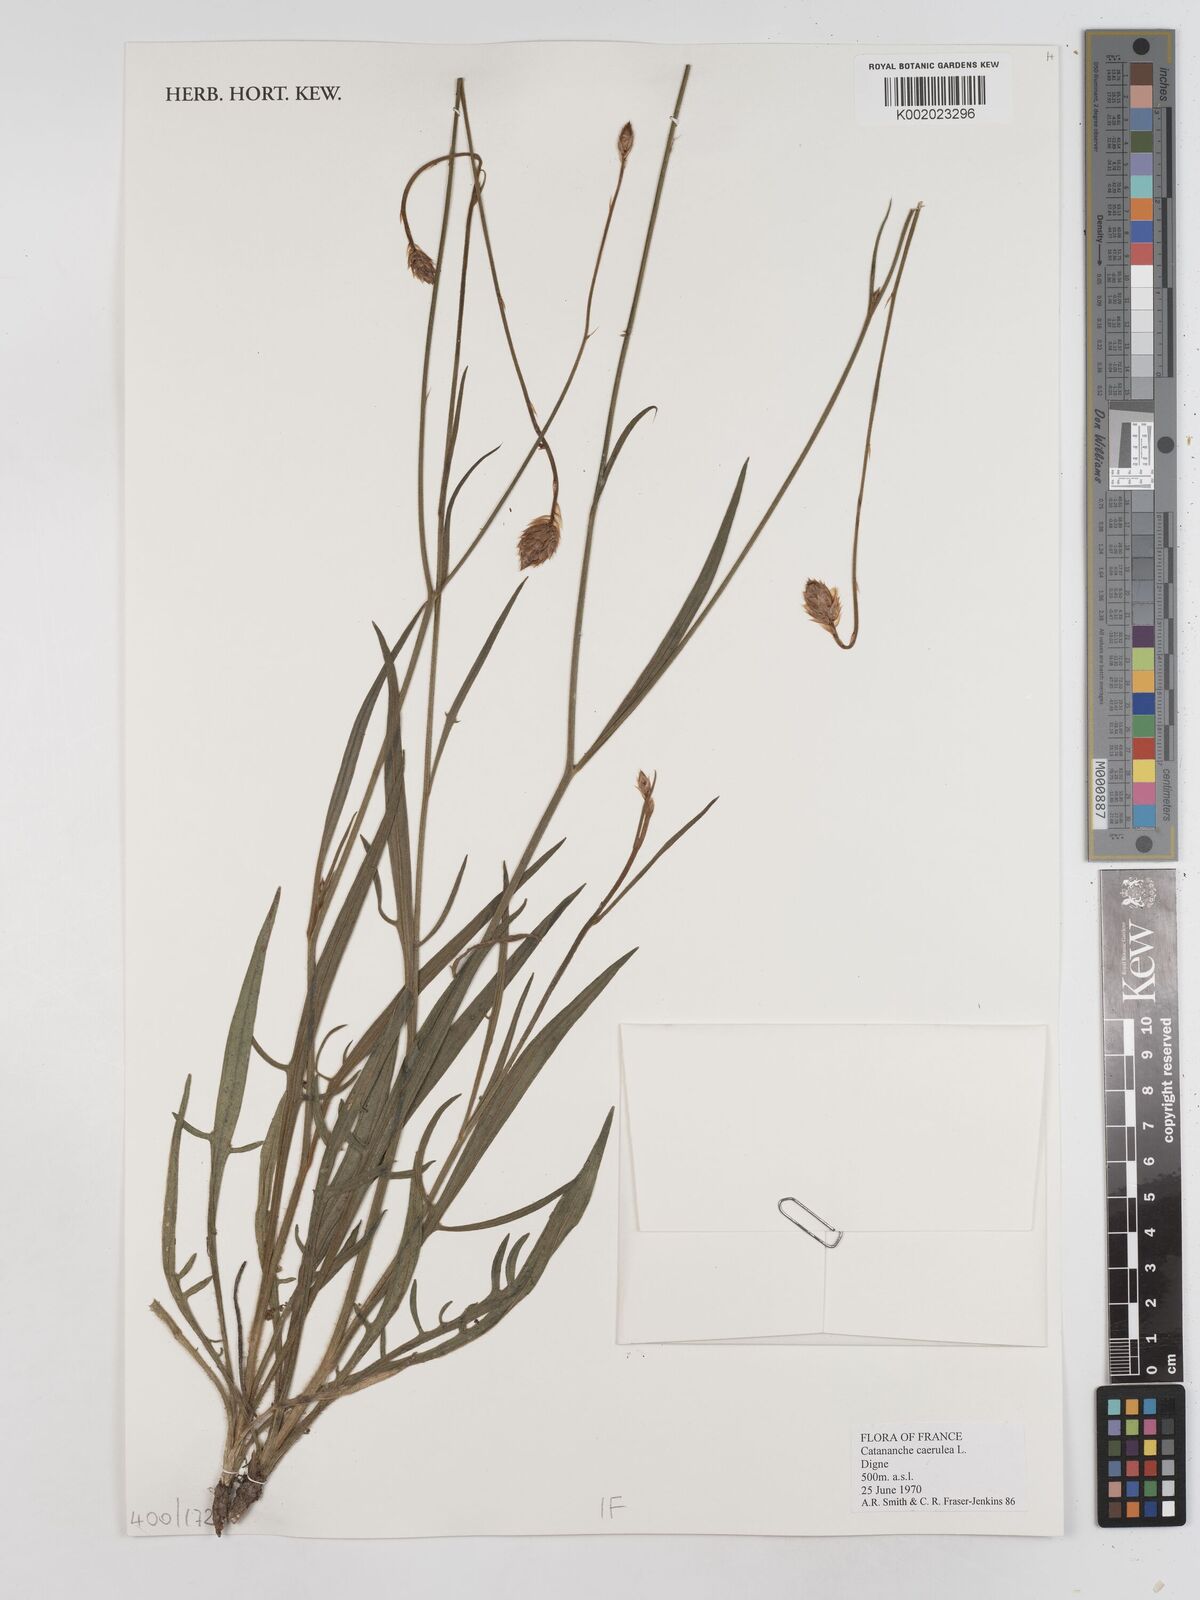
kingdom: Plantae
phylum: Tracheophyta
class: Magnoliopsida
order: Asterales
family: Asteraceae
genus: Catananche
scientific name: Catananche caerulea
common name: Blue cupidone
